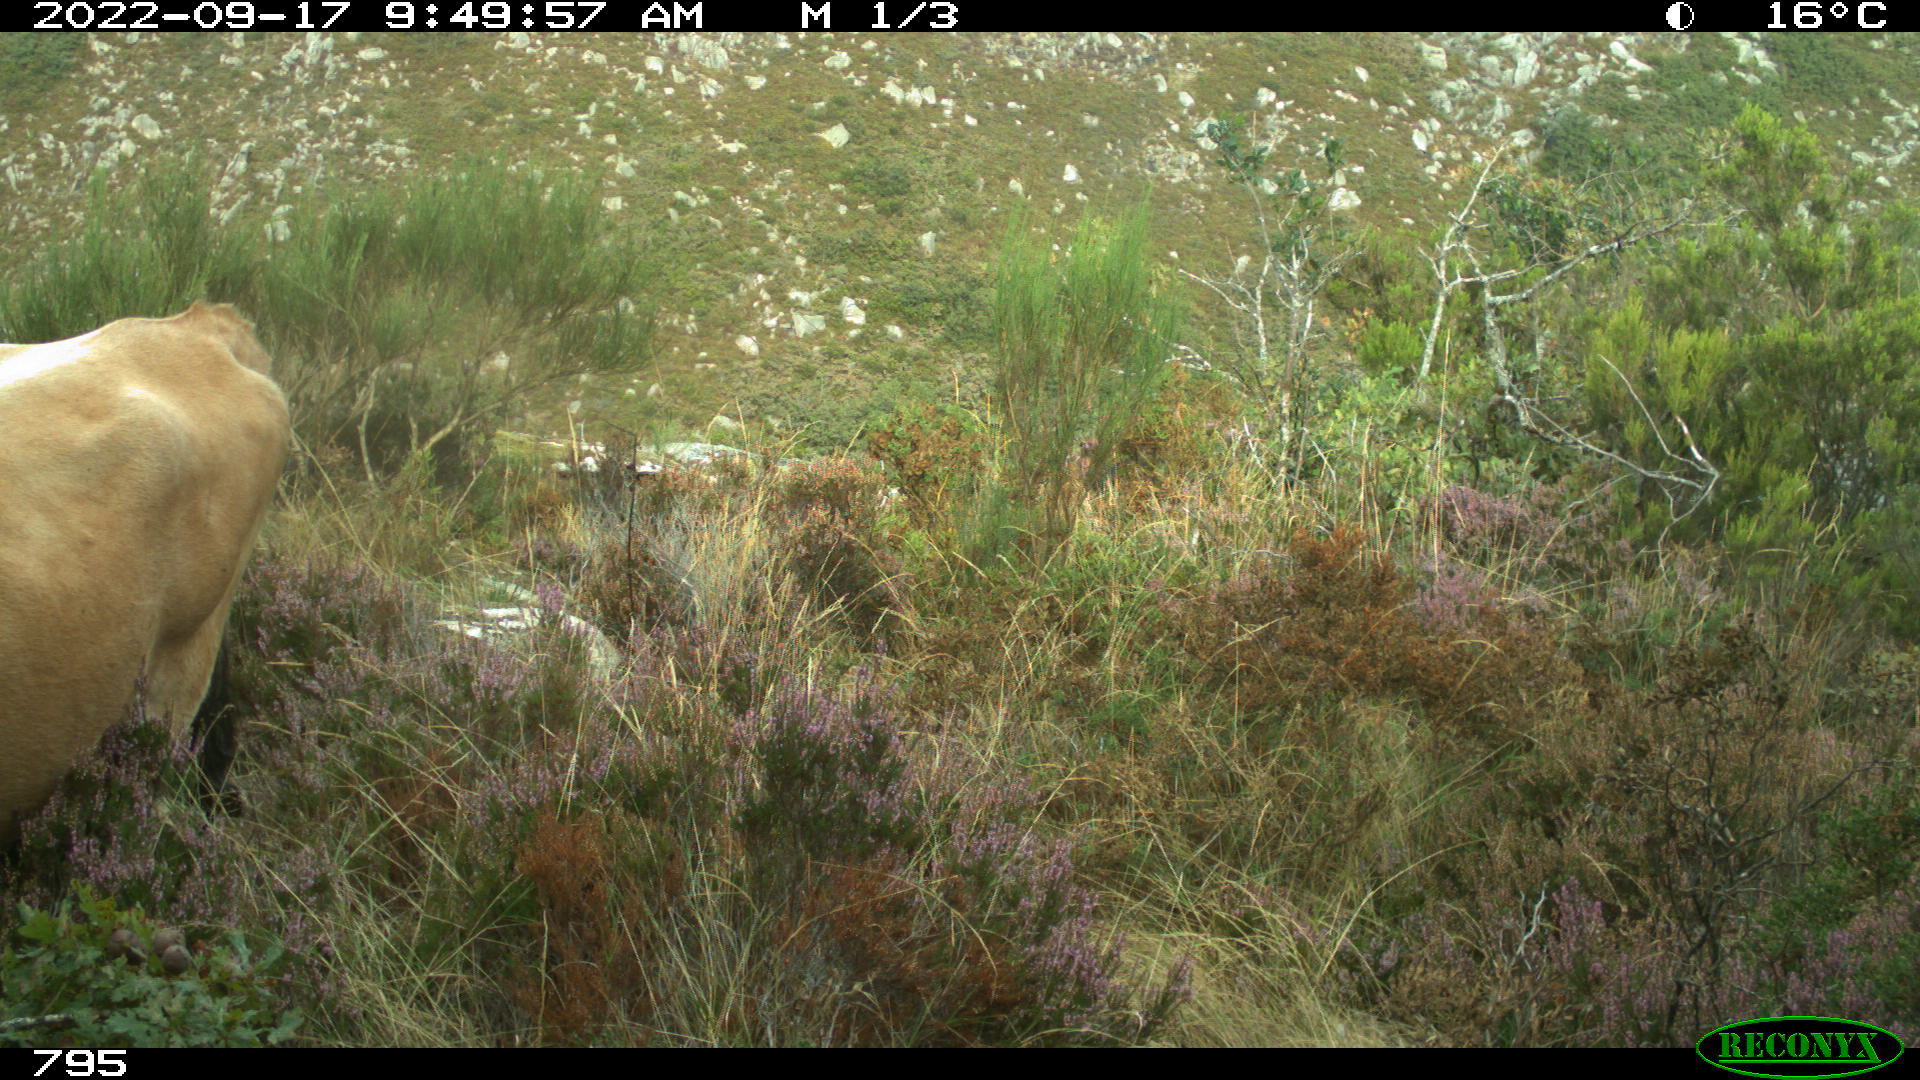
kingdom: Animalia
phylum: Chordata
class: Mammalia
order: Artiodactyla
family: Bovidae
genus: Bos
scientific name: Bos taurus
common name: Domesticated cattle
